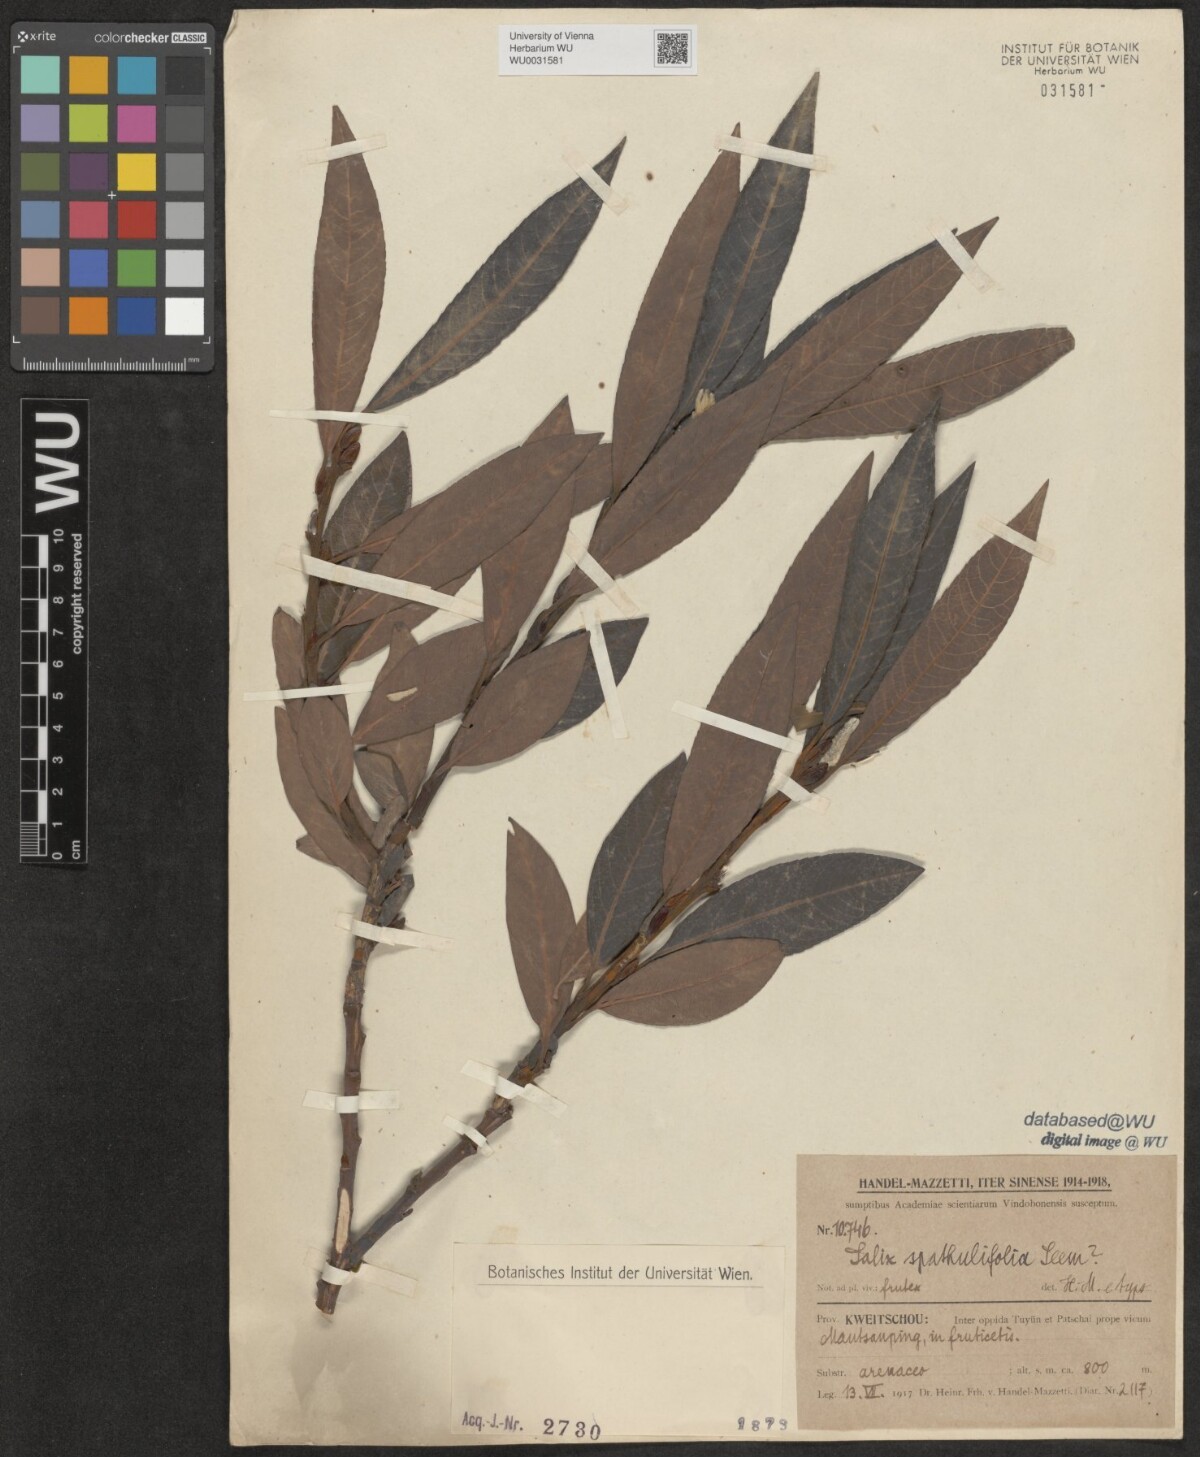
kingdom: Plantae
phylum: Tracheophyta
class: Magnoliopsida
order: Malpighiales
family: Salicaceae
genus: Salix
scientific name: Salix spathulifolia
